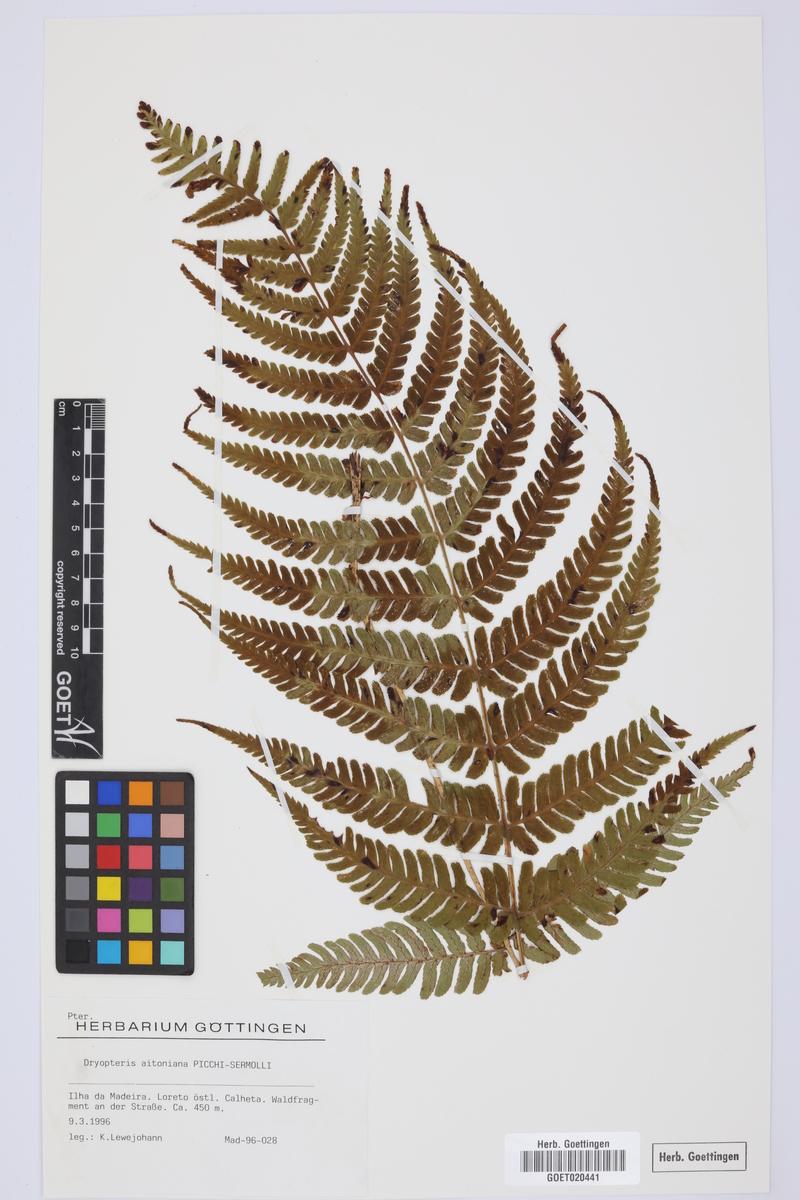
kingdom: Plantae
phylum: Tracheophyta
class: Polypodiopsida
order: Polypodiales
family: Dryopteridaceae
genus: Dryopteris
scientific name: Dryopteris aitoniana
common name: Aiton's buckler-fern
